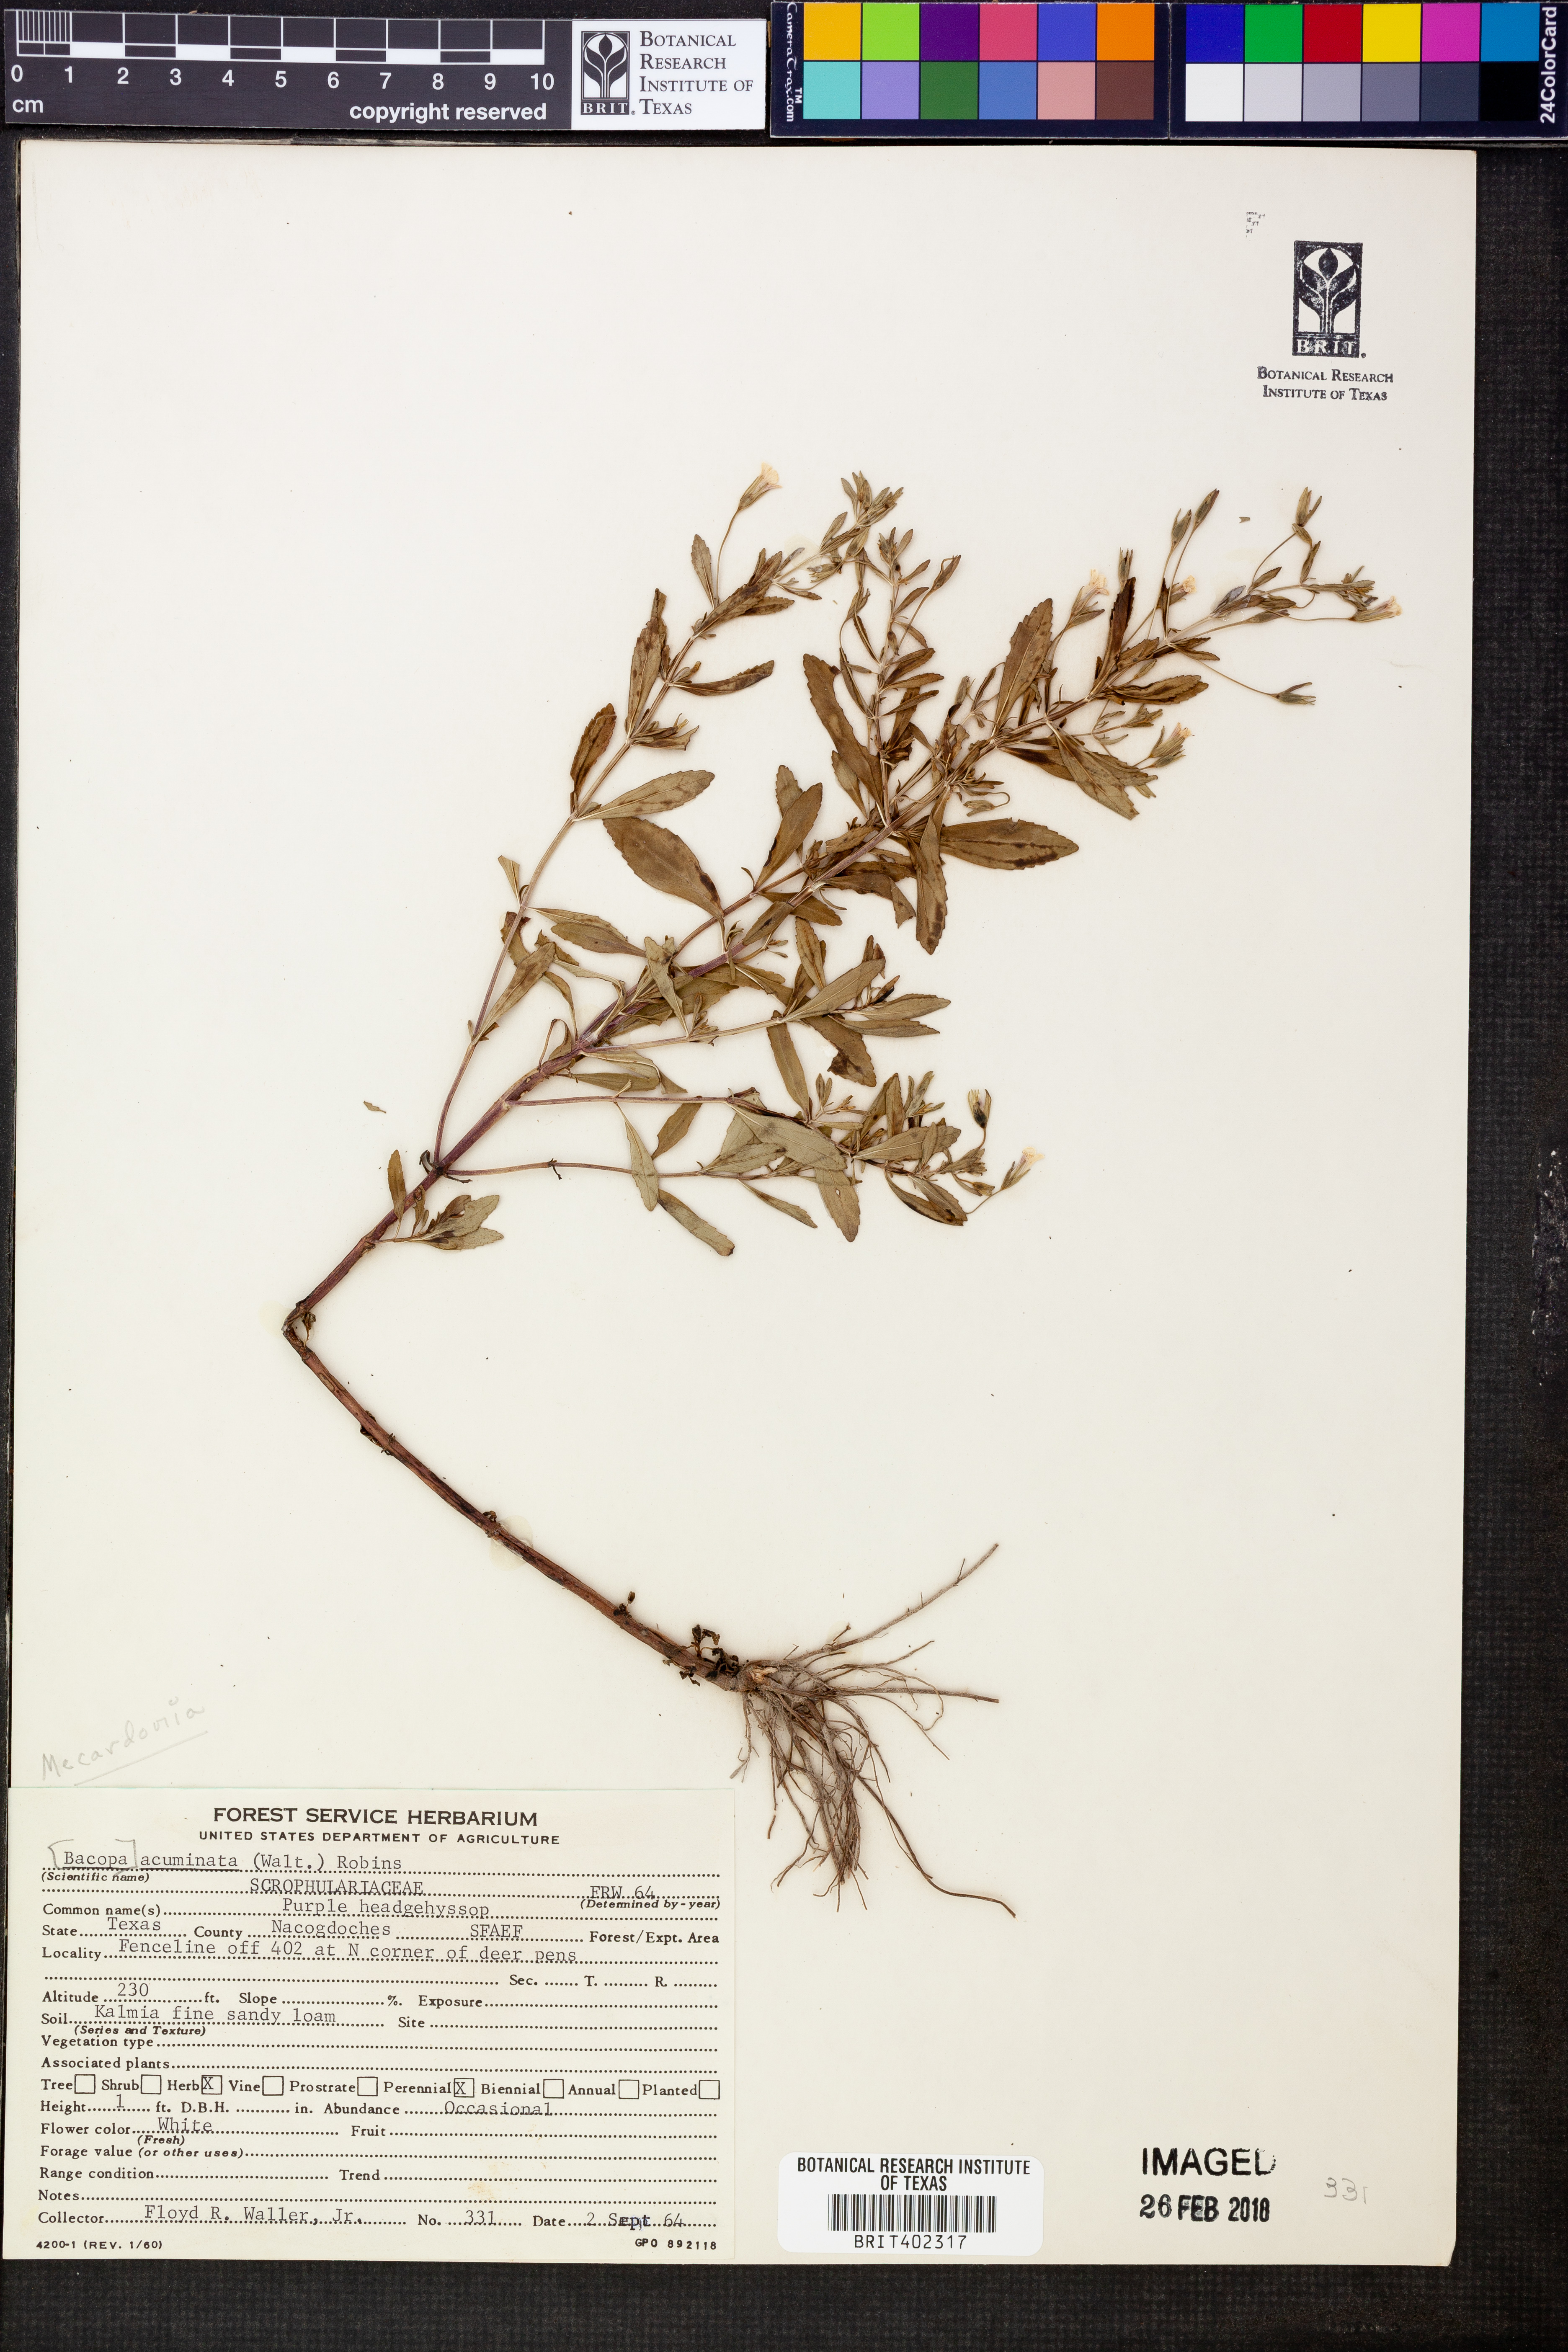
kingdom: Plantae
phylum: Tracheophyta
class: Magnoliopsida
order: Lamiales
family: Plantaginaceae
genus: Mecardonia
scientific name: Mecardonia acuminata
